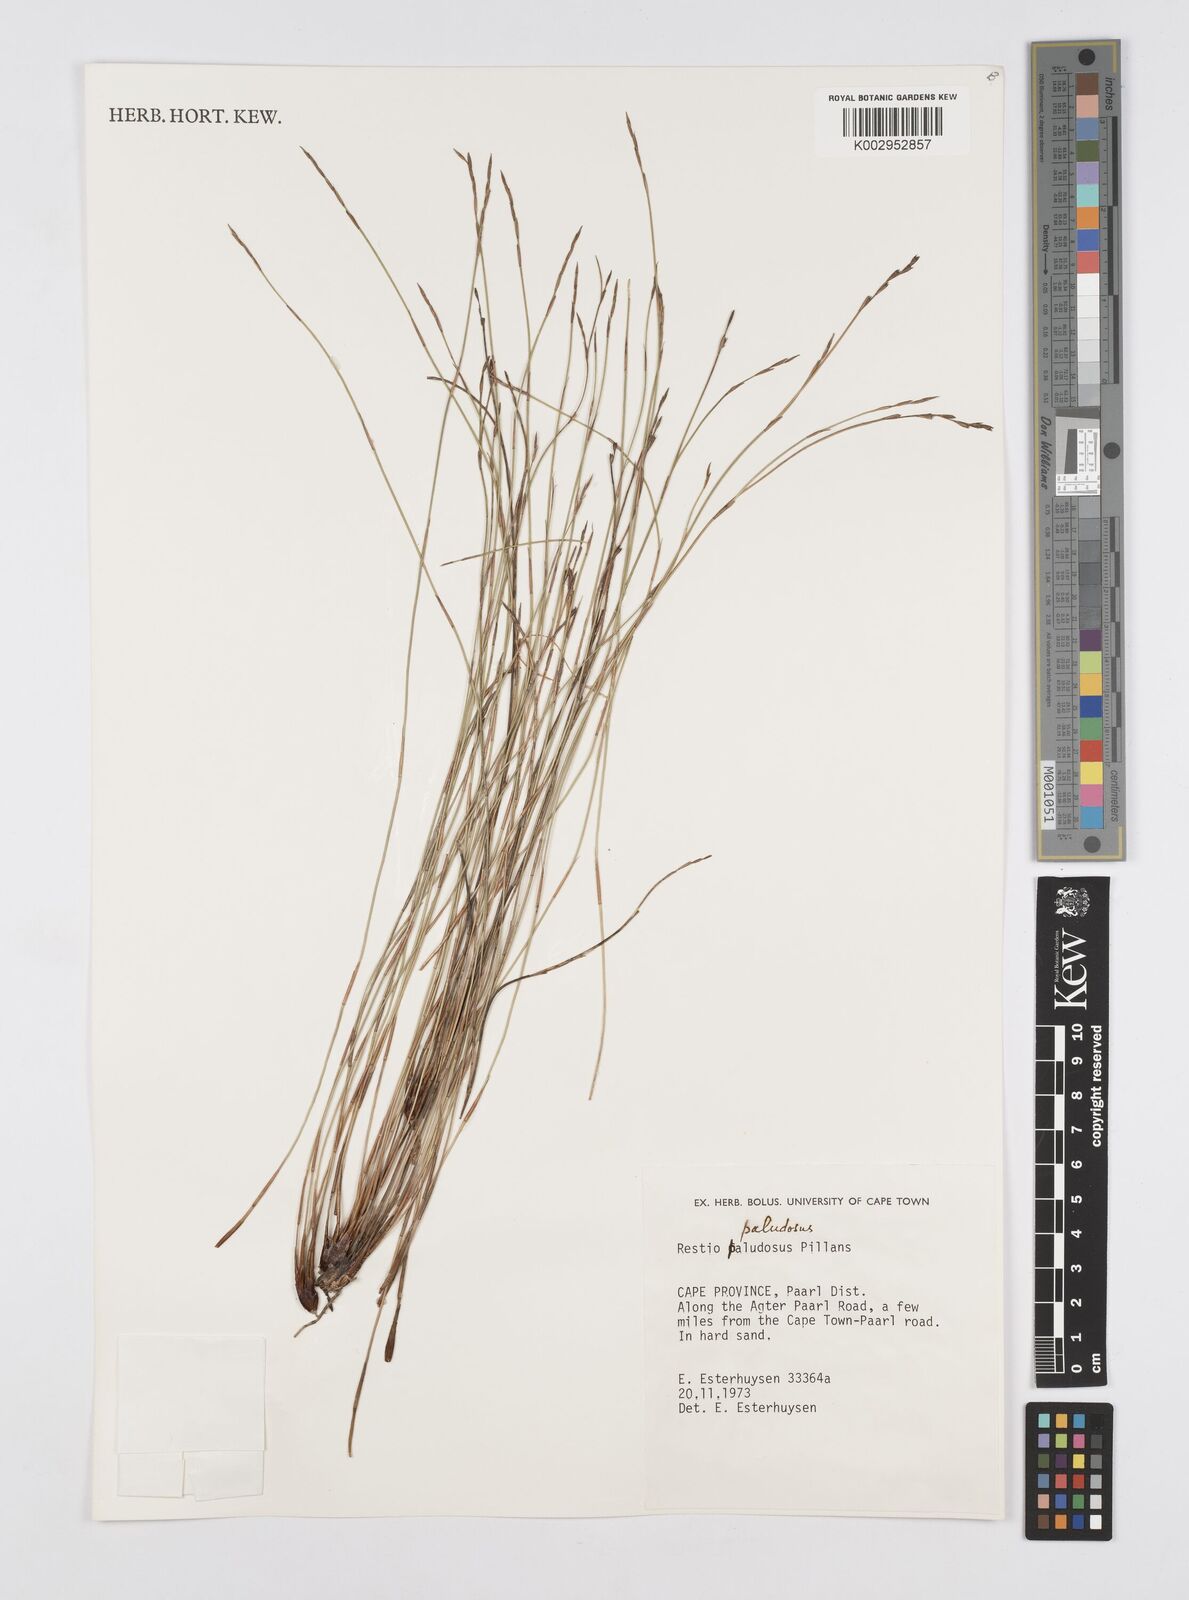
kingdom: Plantae
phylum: Tracheophyta
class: Liliopsida
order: Poales
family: Restionaceae
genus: Restio
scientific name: Restio paludosus
